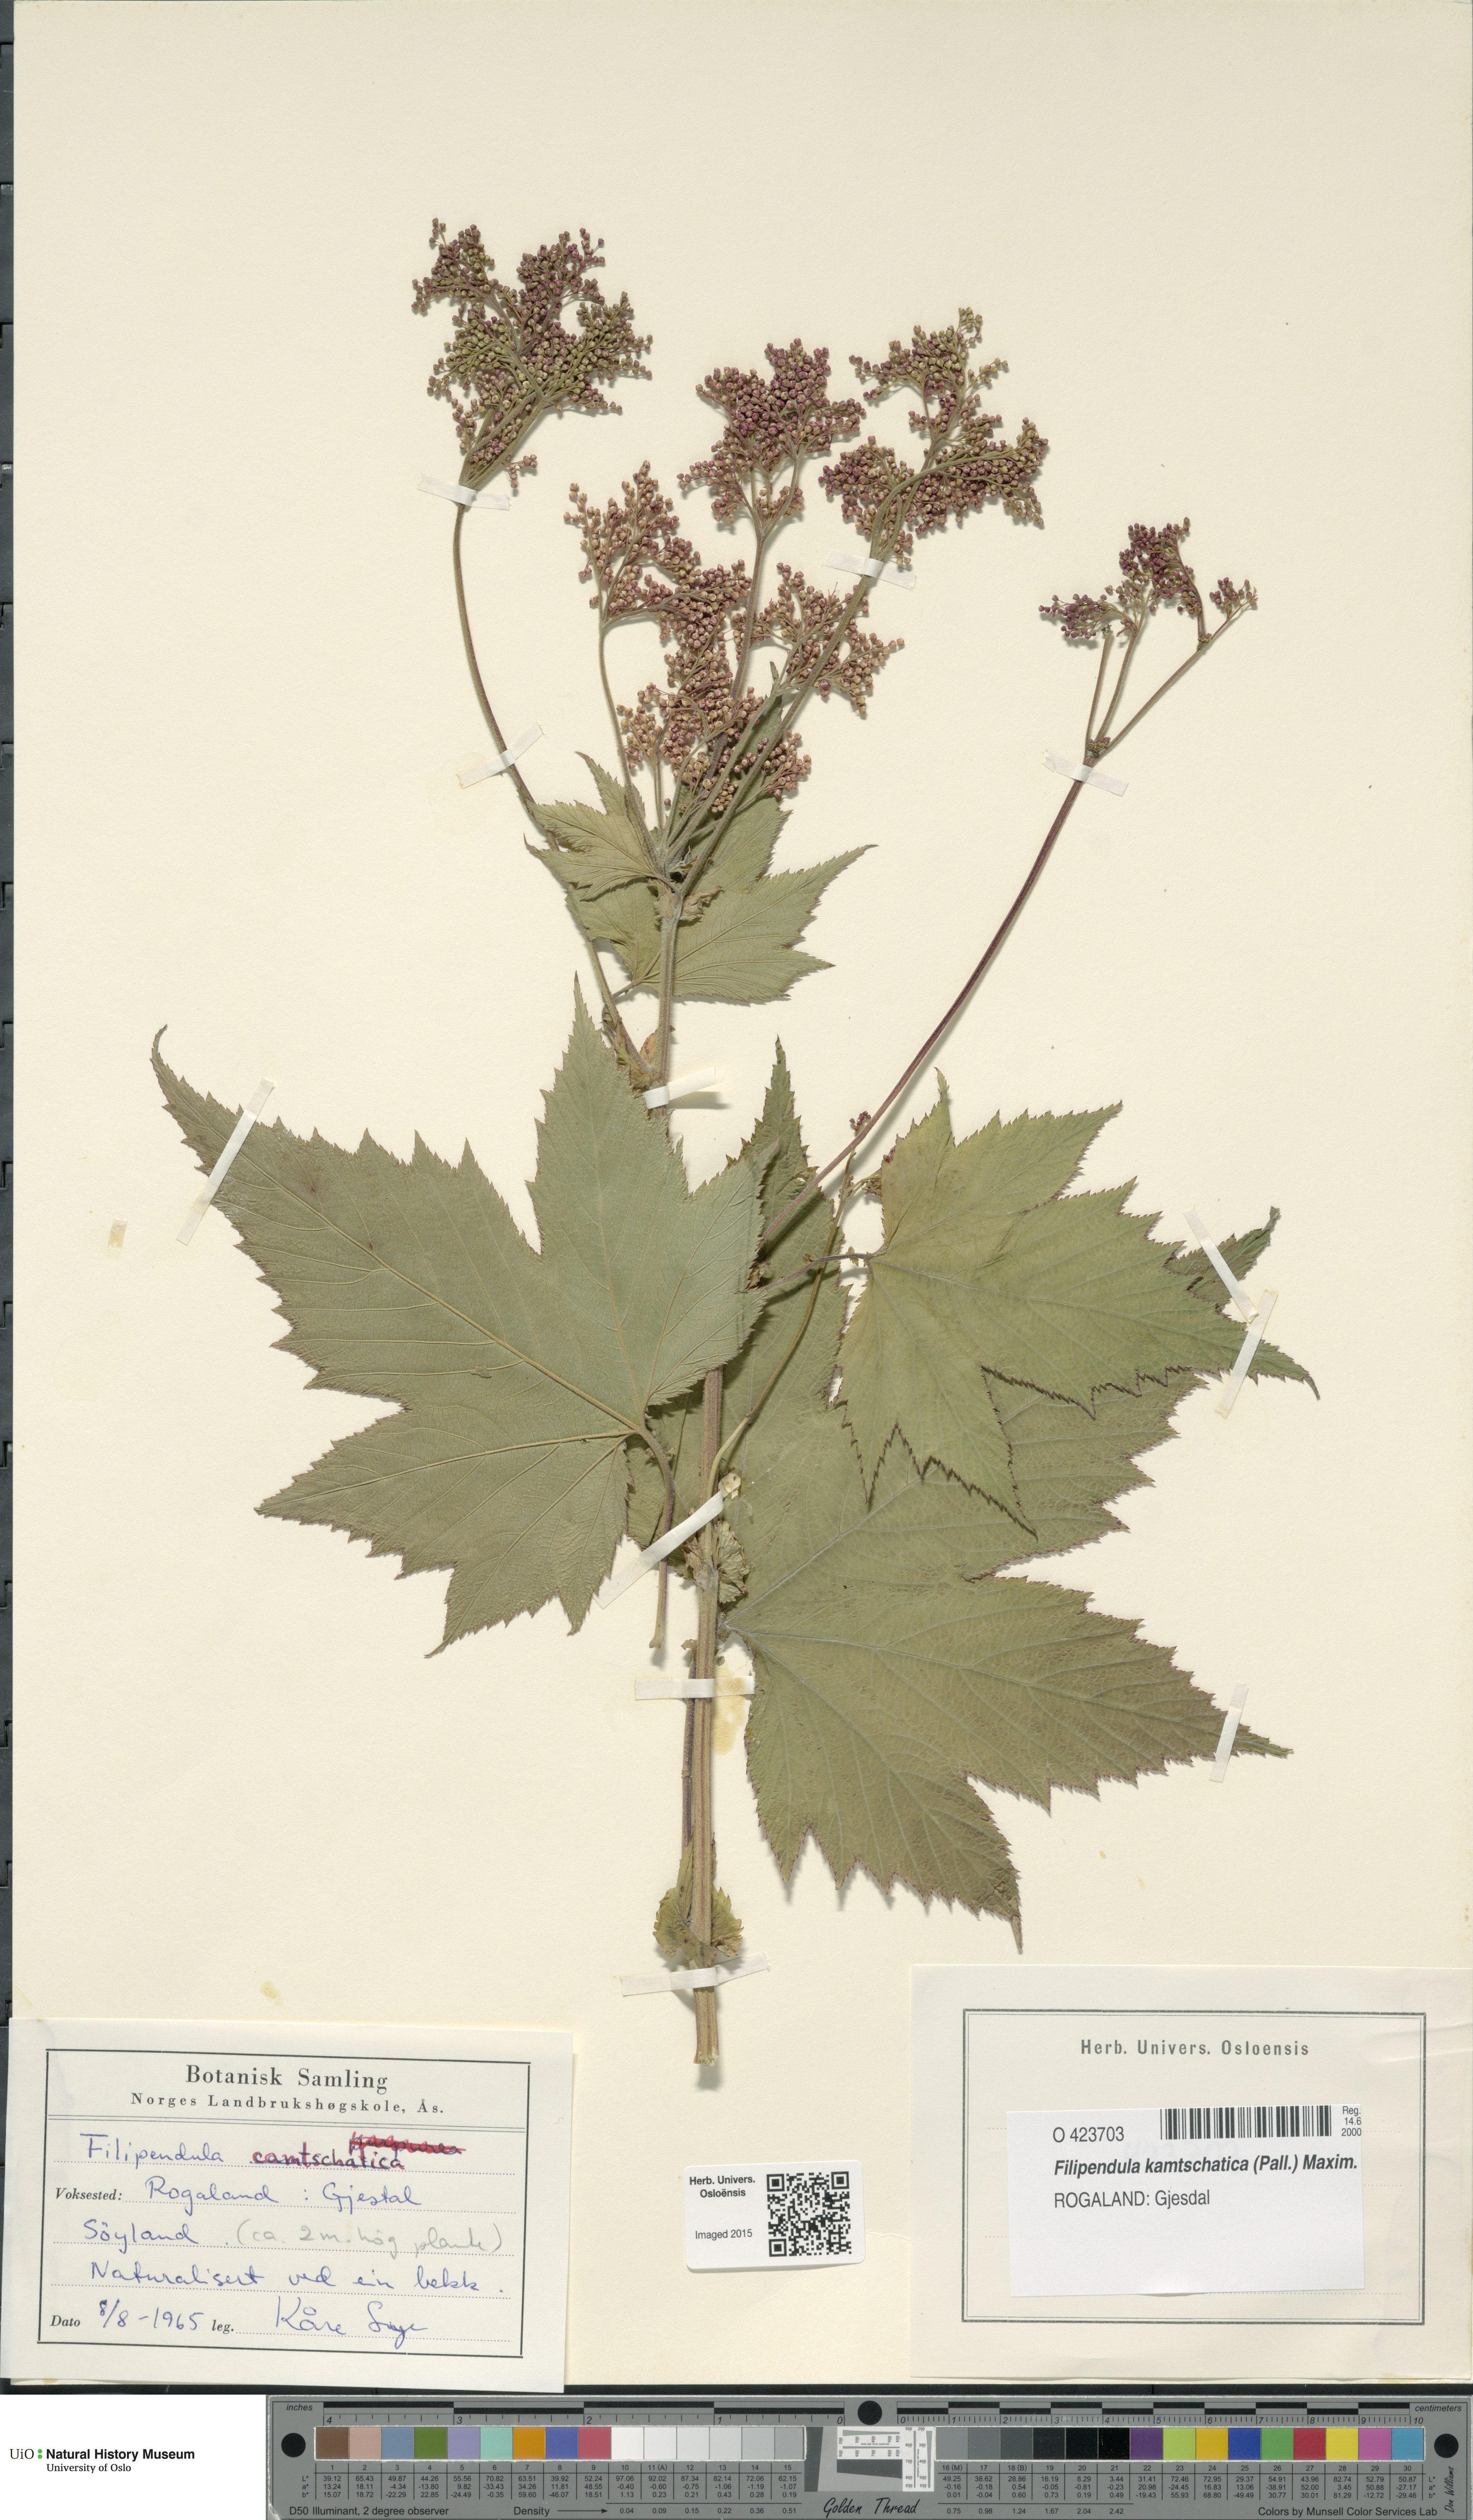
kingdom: Plantae
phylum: Tracheophyta
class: Magnoliopsida
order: Rosales
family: Rosaceae
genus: Filipendula
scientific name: Filipendula camschatica
